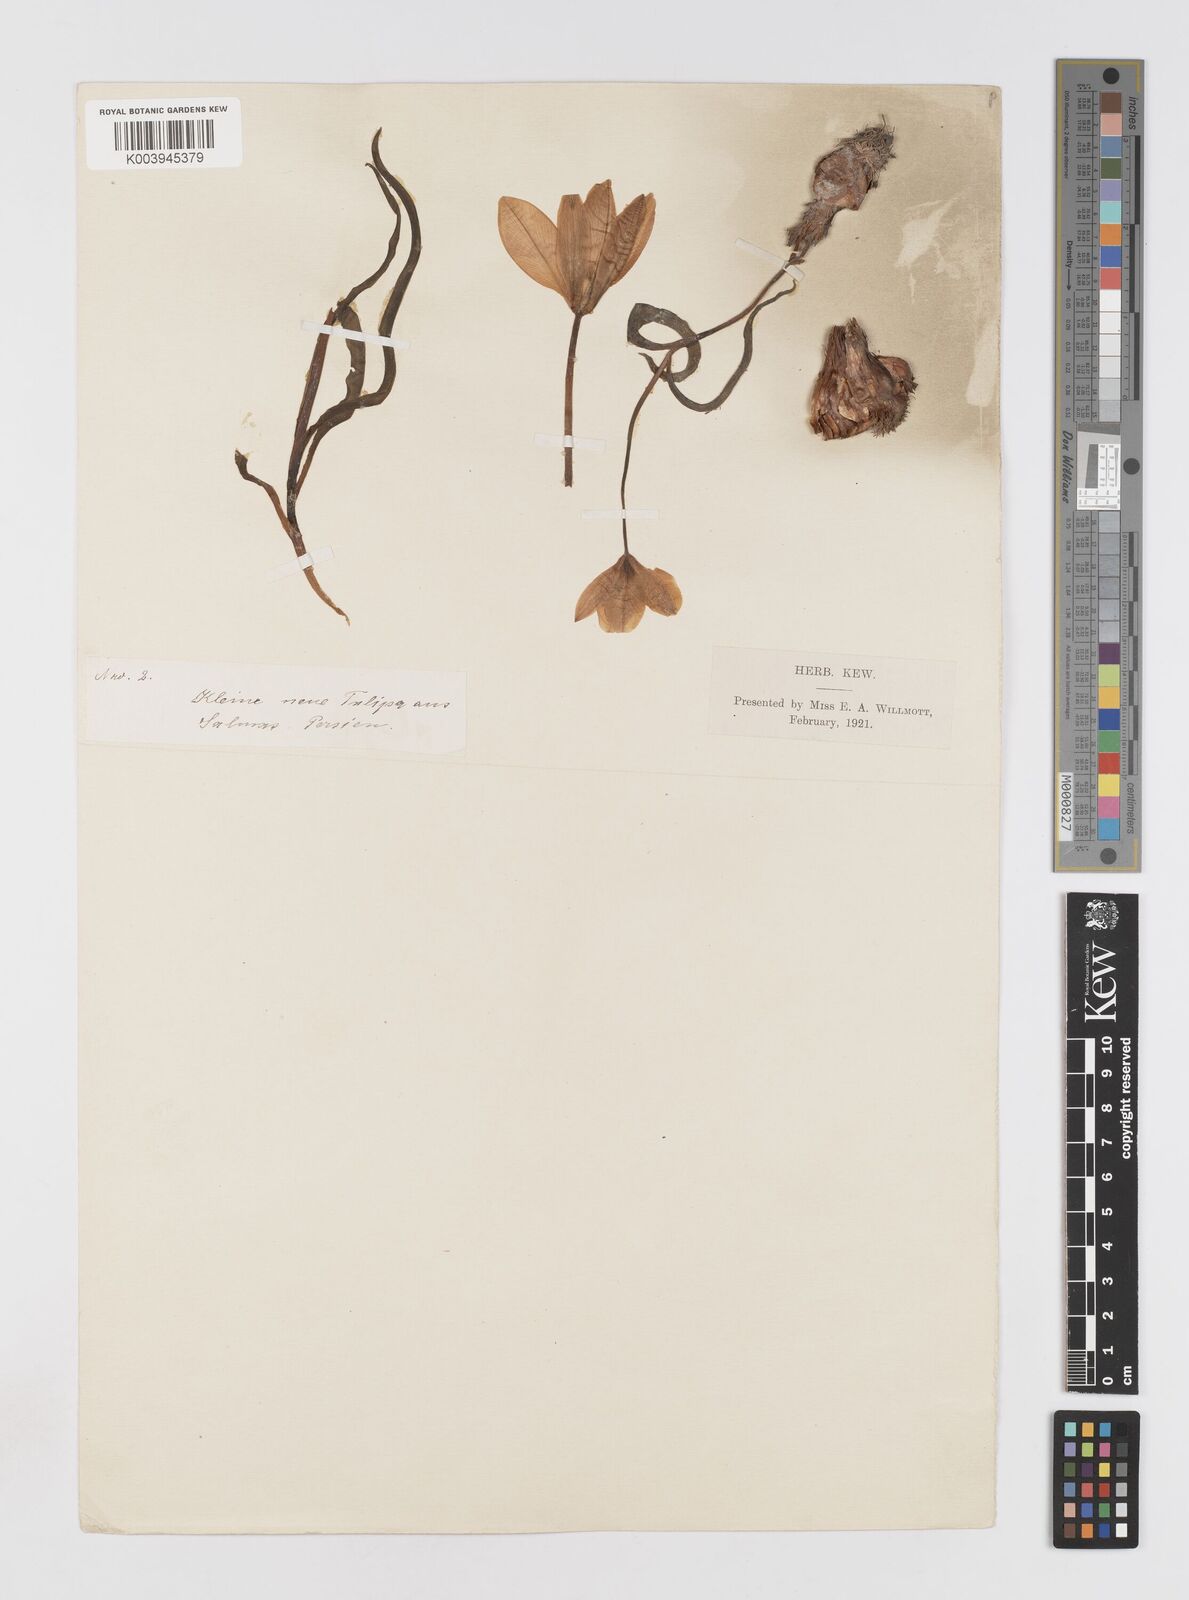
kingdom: Plantae
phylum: Tracheophyta
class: Liliopsida
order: Liliales
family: Liliaceae
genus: Tulipa
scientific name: Tulipa humilis
